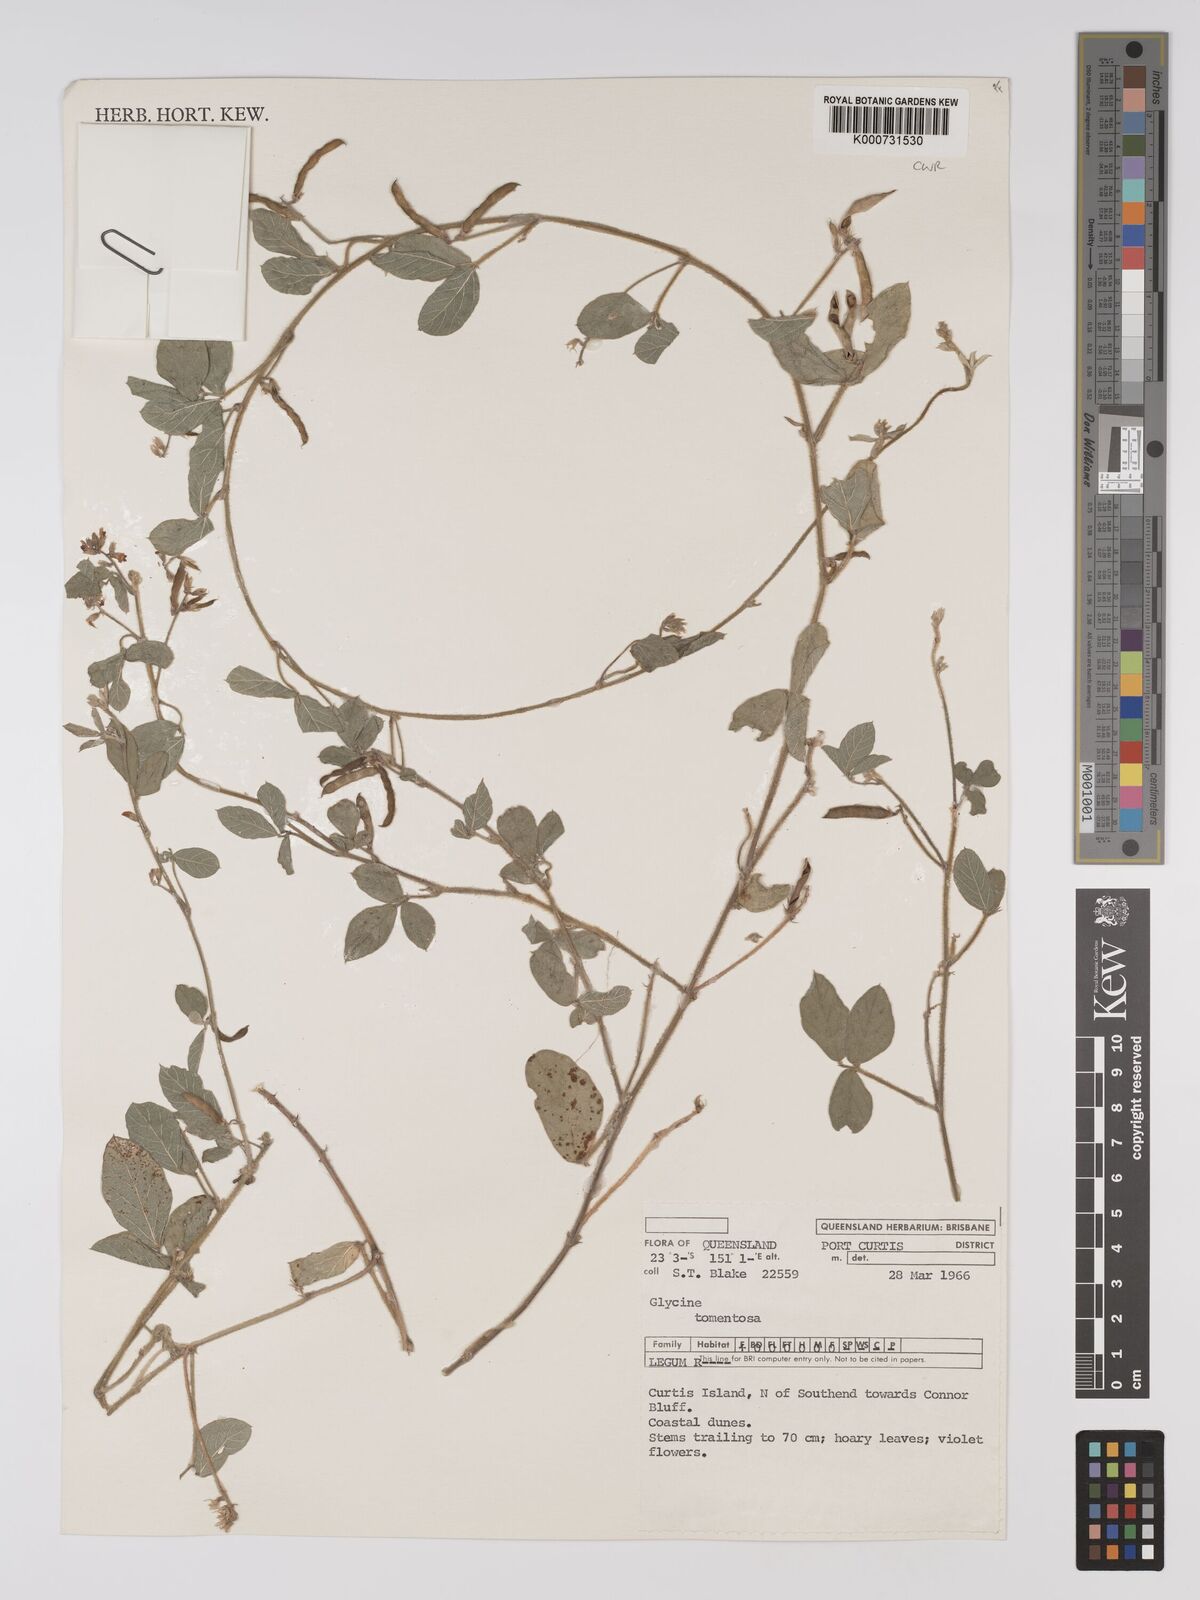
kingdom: Plantae
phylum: Tracheophyta
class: Magnoliopsida
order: Fabales
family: Fabaceae
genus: Rhynchosia
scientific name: Rhynchosia tomentosa
